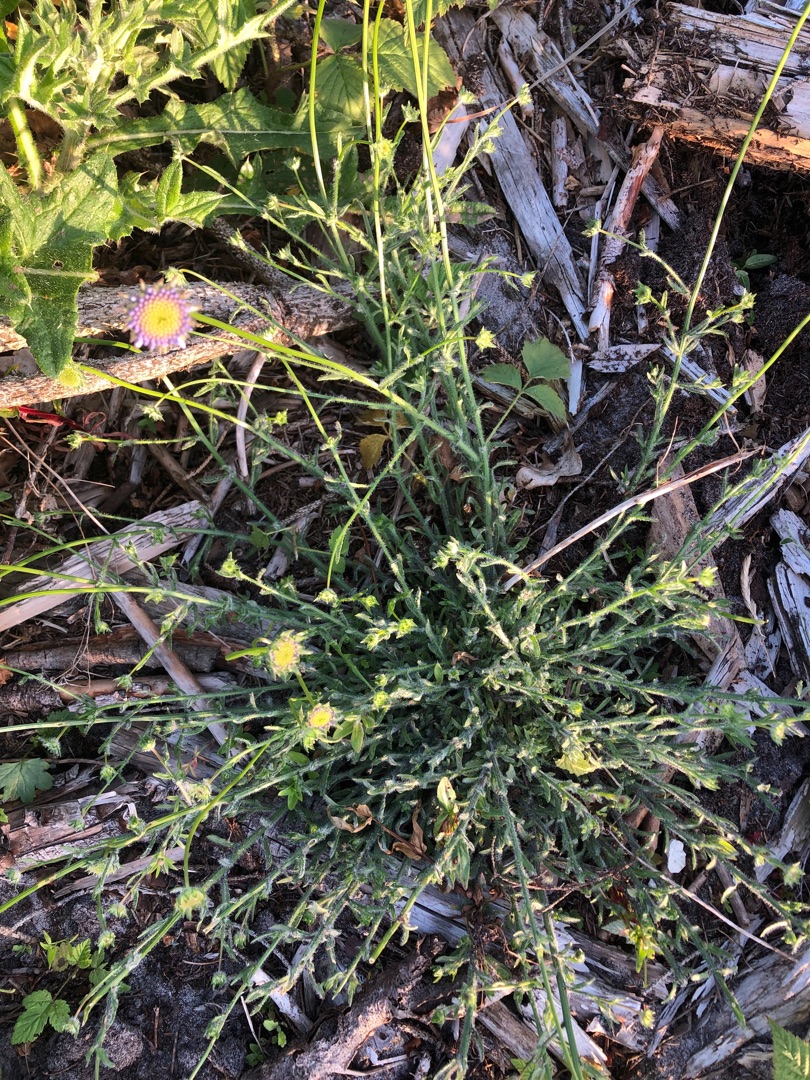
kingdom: Plantae
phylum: Tracheophyta
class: Magnoliopsida
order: Asterales
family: Campanulaceae
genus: Jasione
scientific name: Jasione montana
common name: Blåmunke
